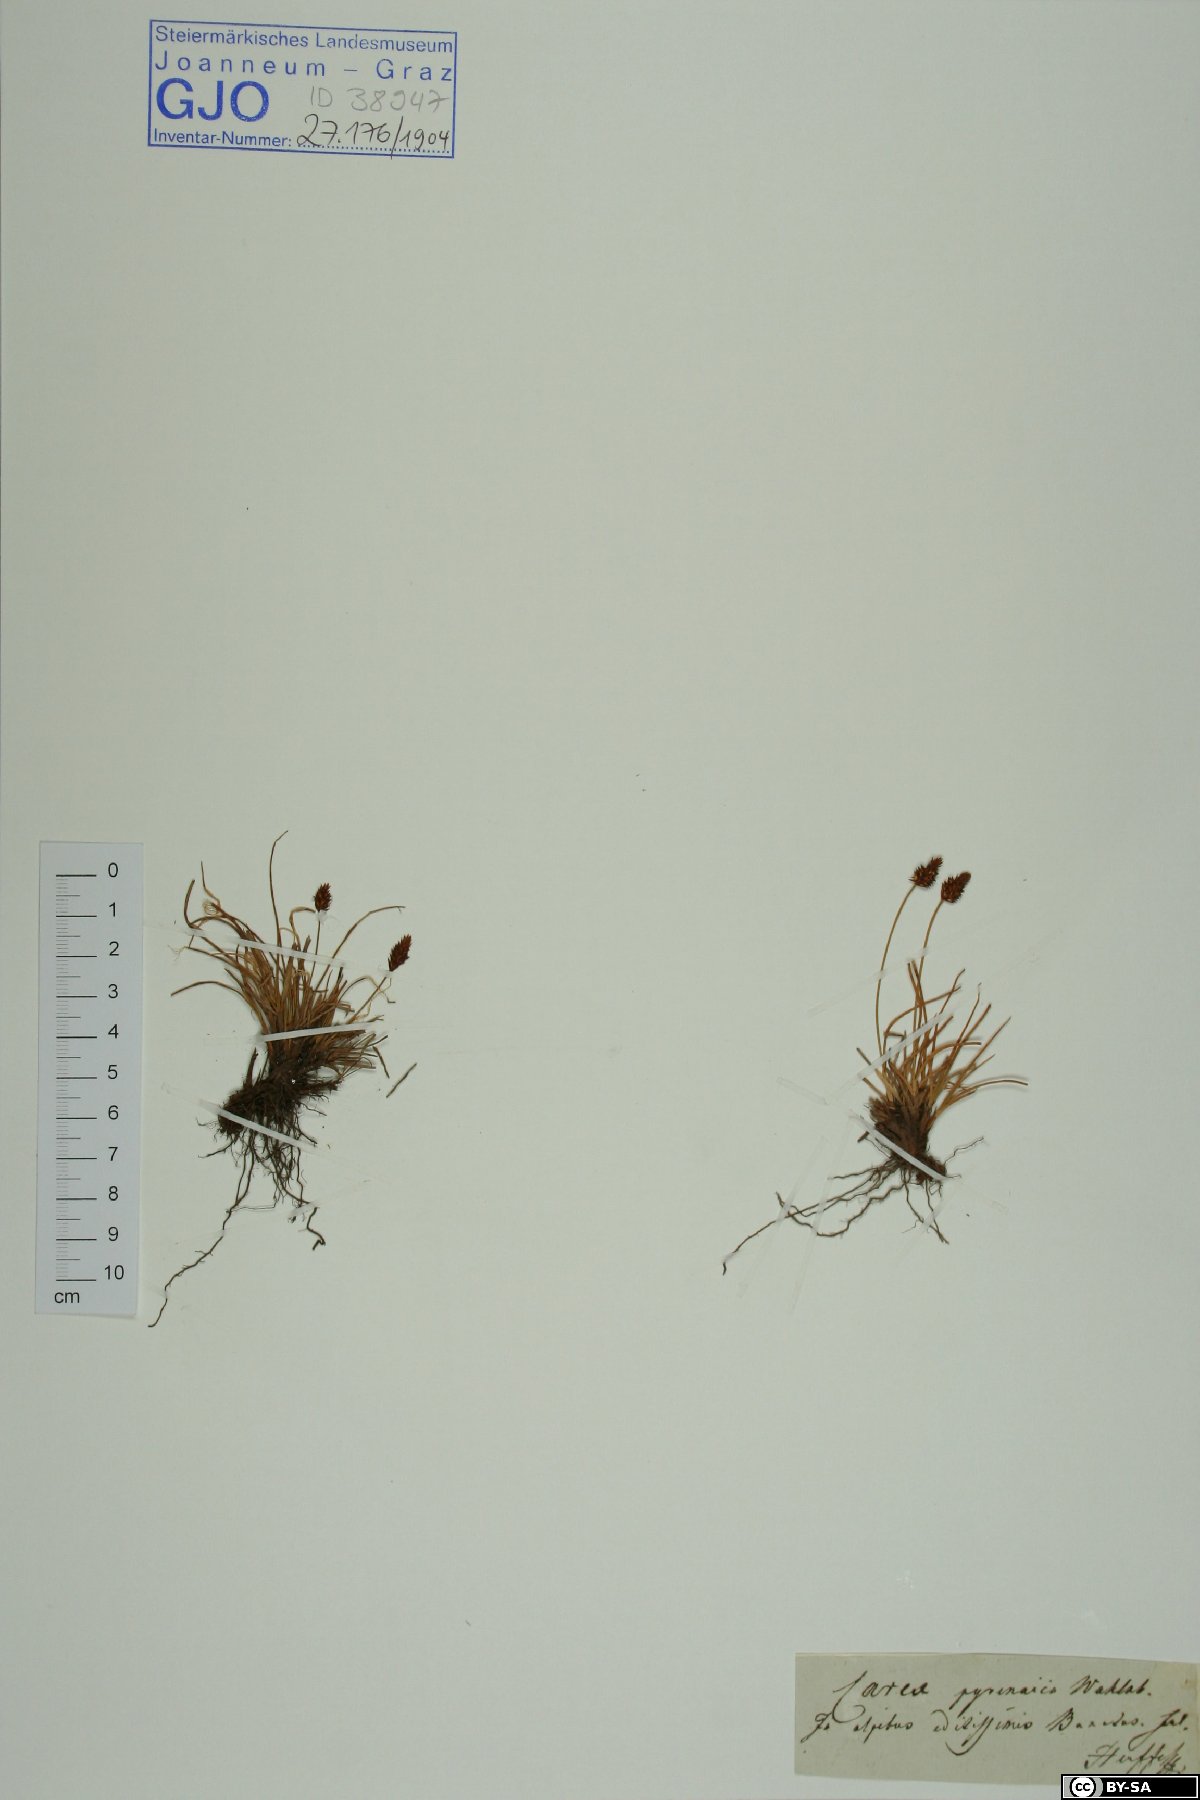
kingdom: Plantae
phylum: Tracheophyta
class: Liliopsida
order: Poales
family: Cyperaceae
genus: Carex
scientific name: Carex pyrenaica
